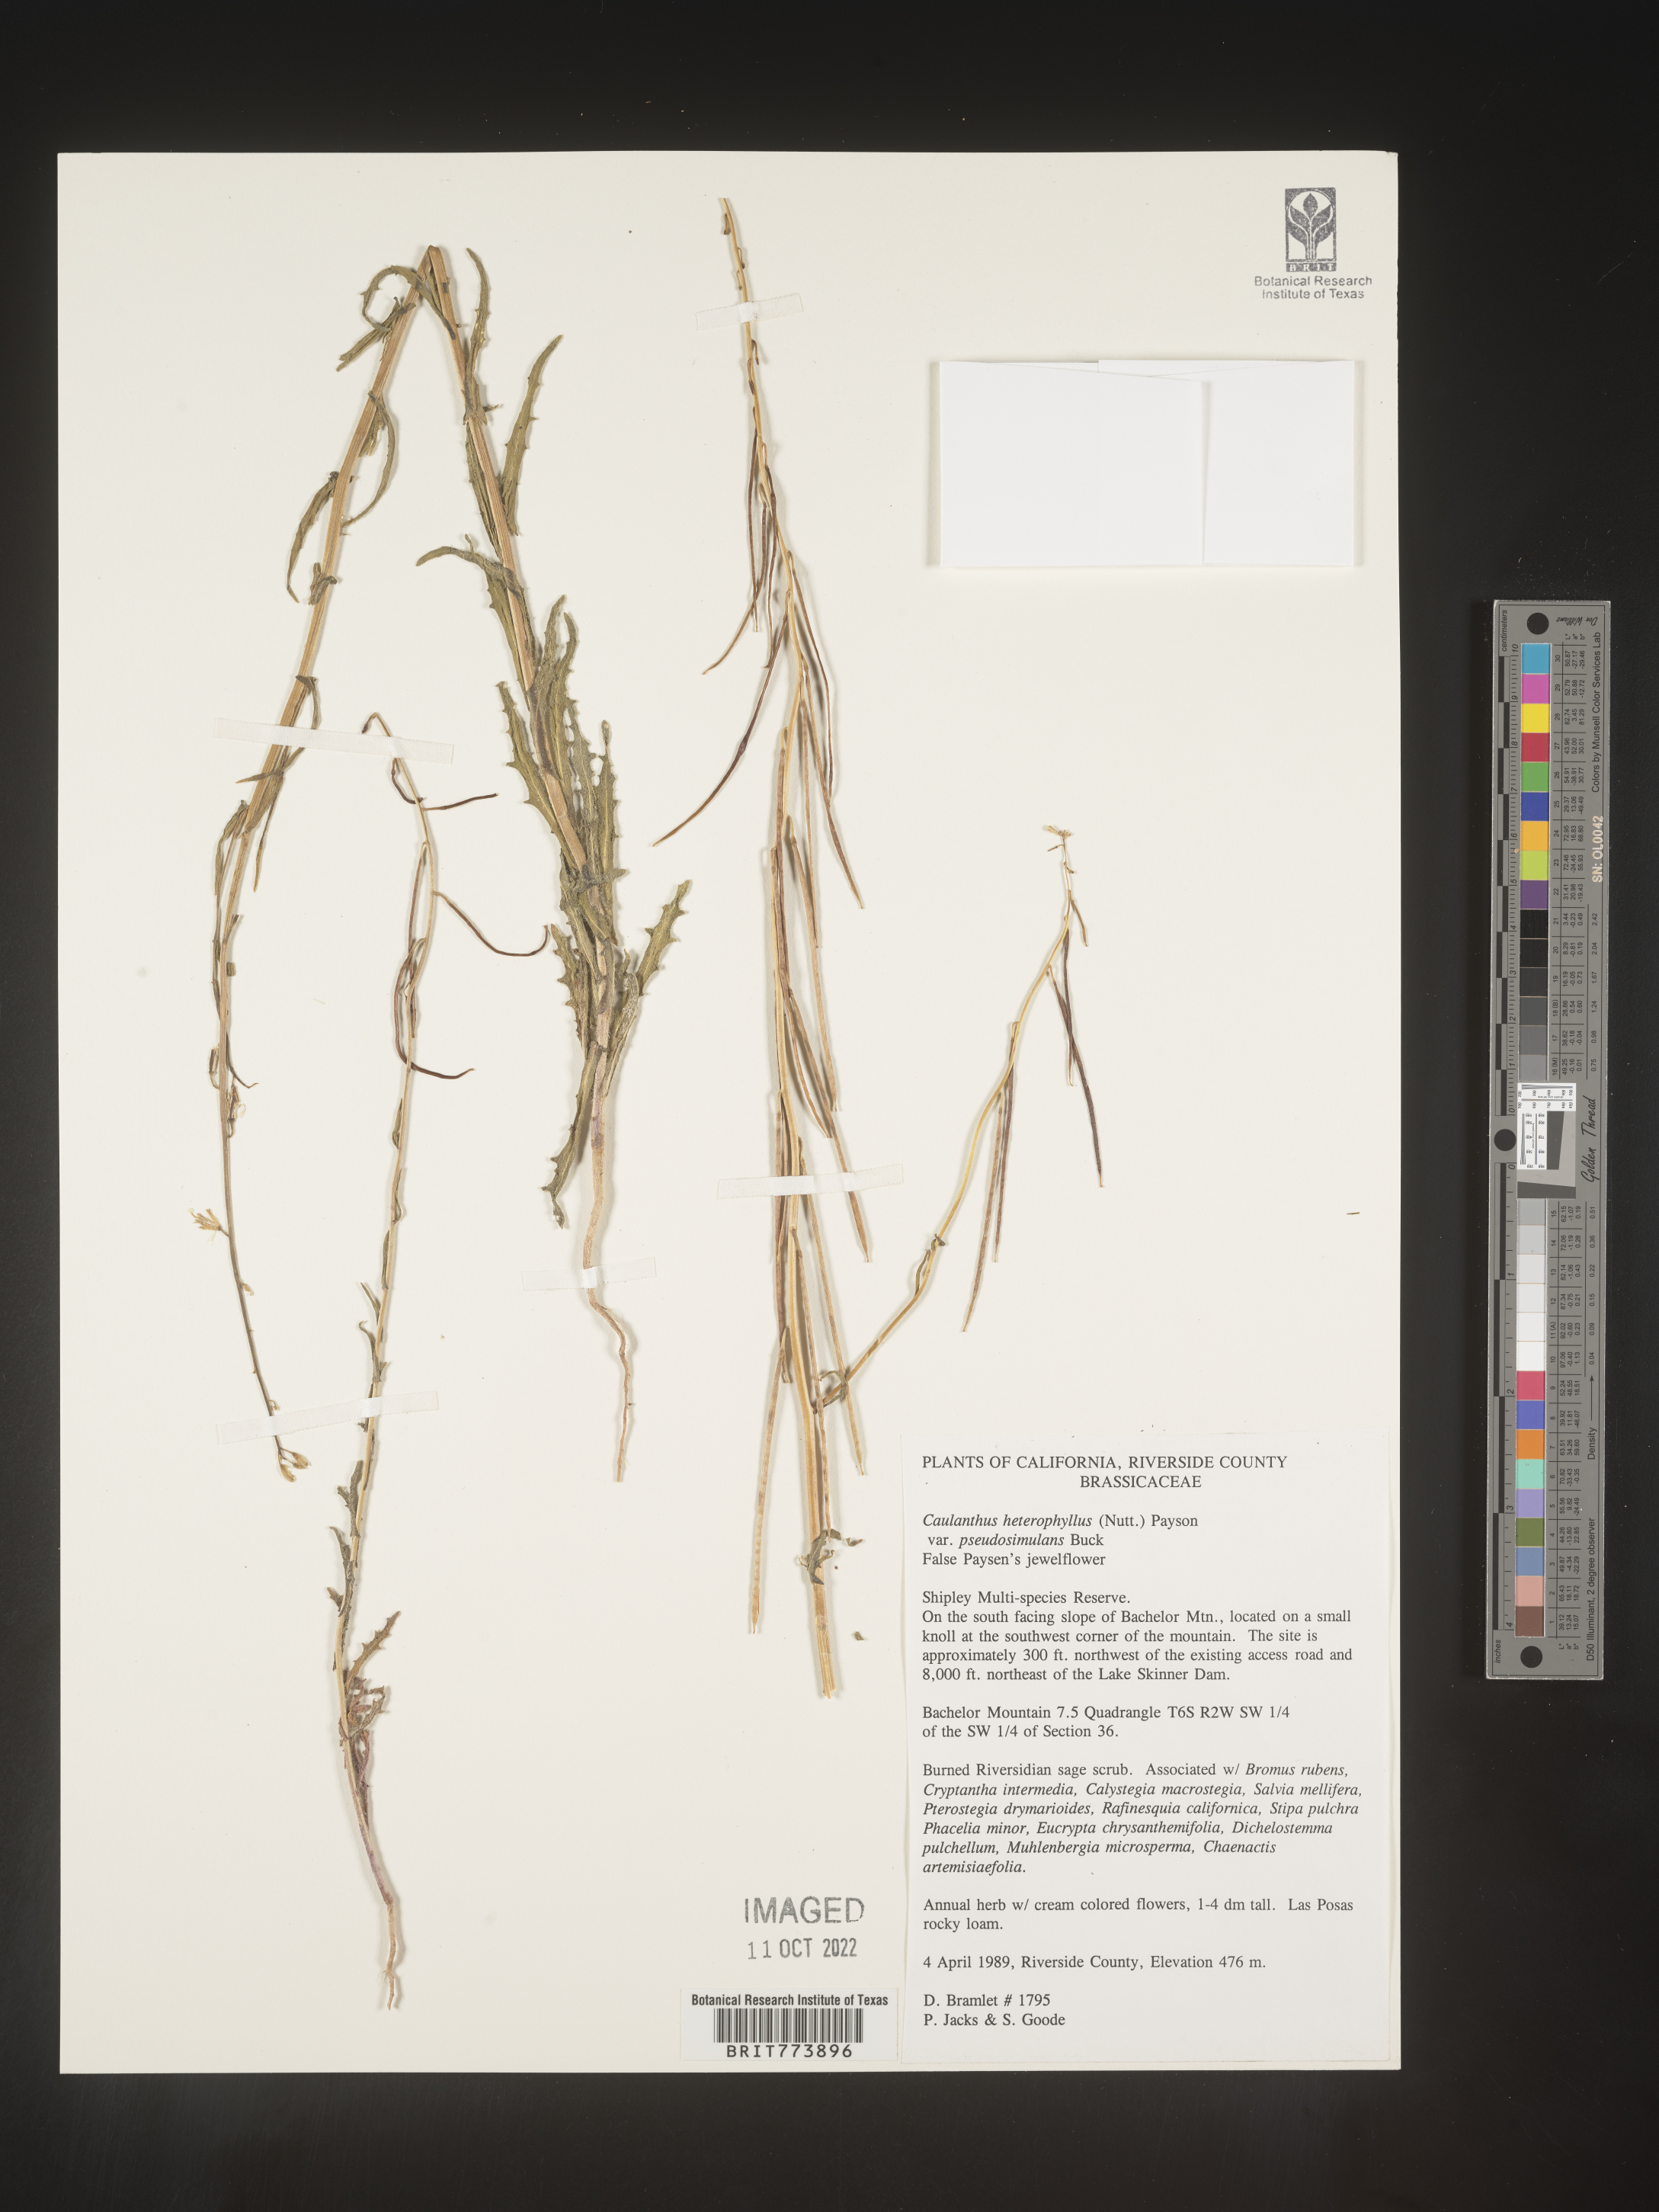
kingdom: Plantae
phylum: Tracheophyta
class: Magnoliopsida
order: Brassicales
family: Brassicaceae
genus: Streptanthus
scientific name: Streptanthus
